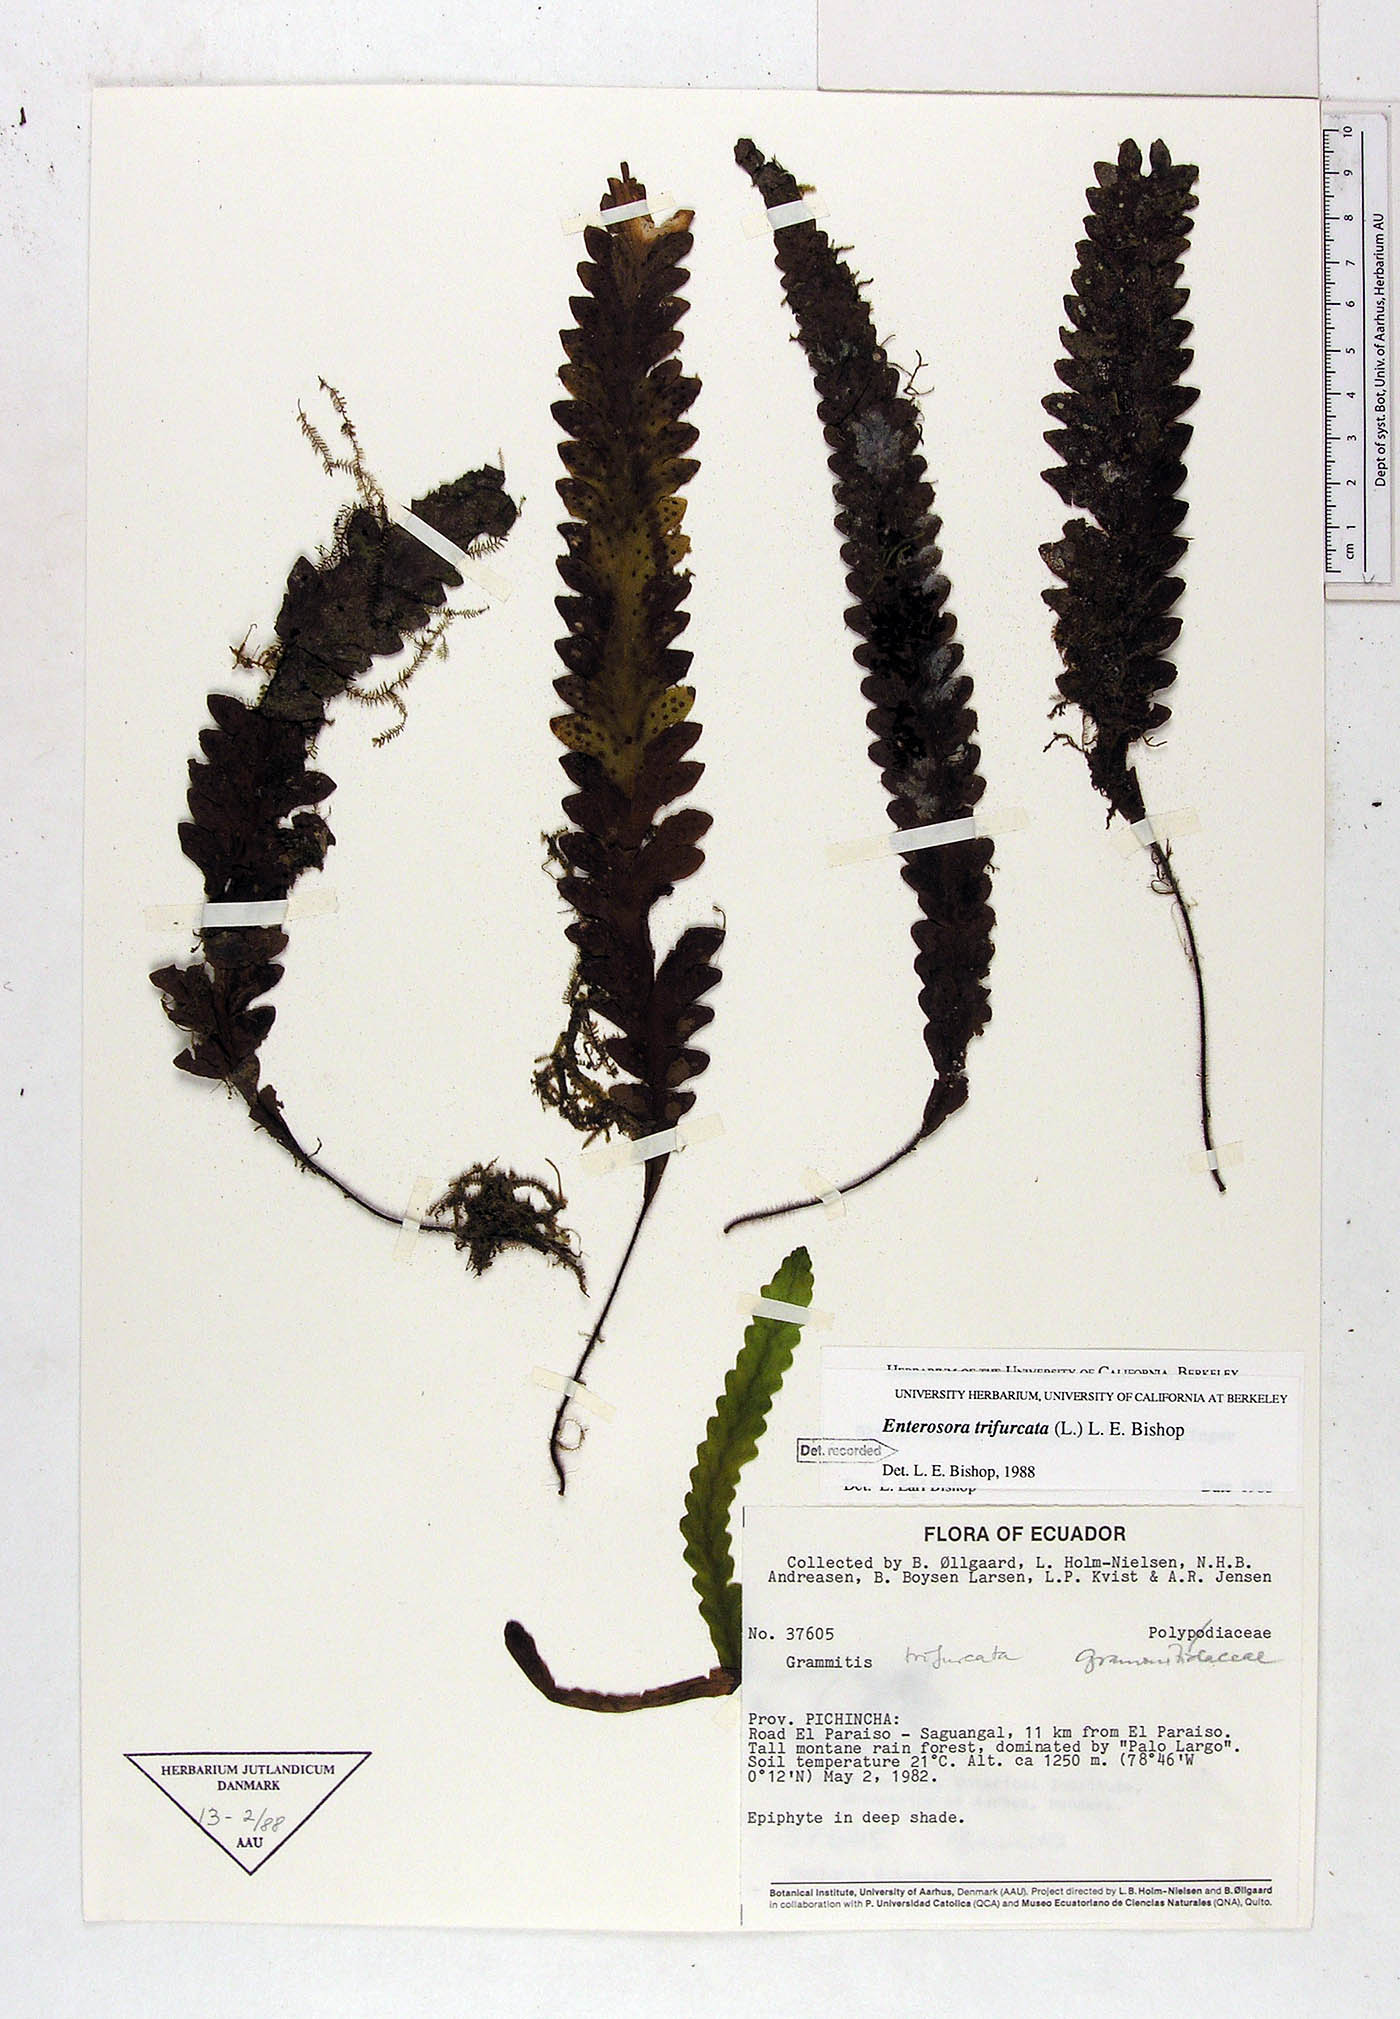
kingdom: Plantae
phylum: Tracheophyta
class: Polypodiopsida
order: Polypodiales
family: Polypodiaceae
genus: Enterosora
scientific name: Enterosora trifurcata
